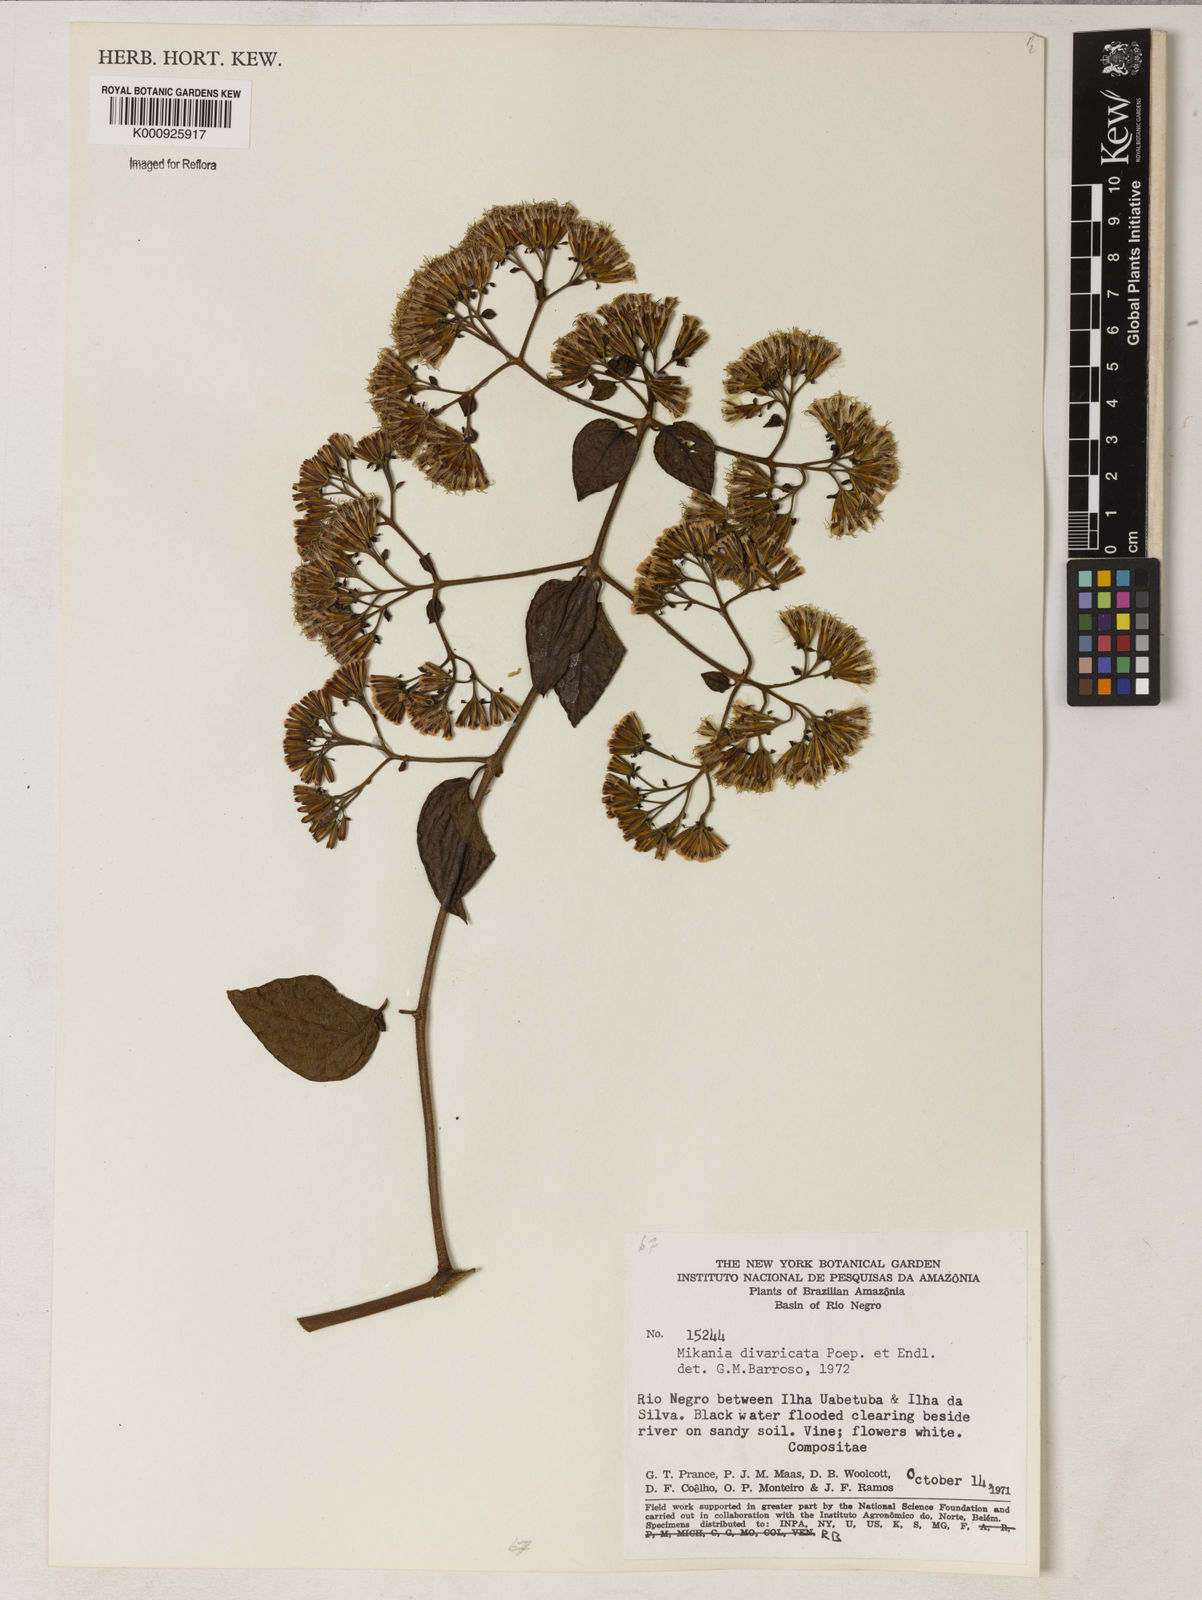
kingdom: Plantae
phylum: Tracheophyta
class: Magnoliopsida
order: Asterales
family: Asteraceae
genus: Mikania
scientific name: Mikania parviflora
